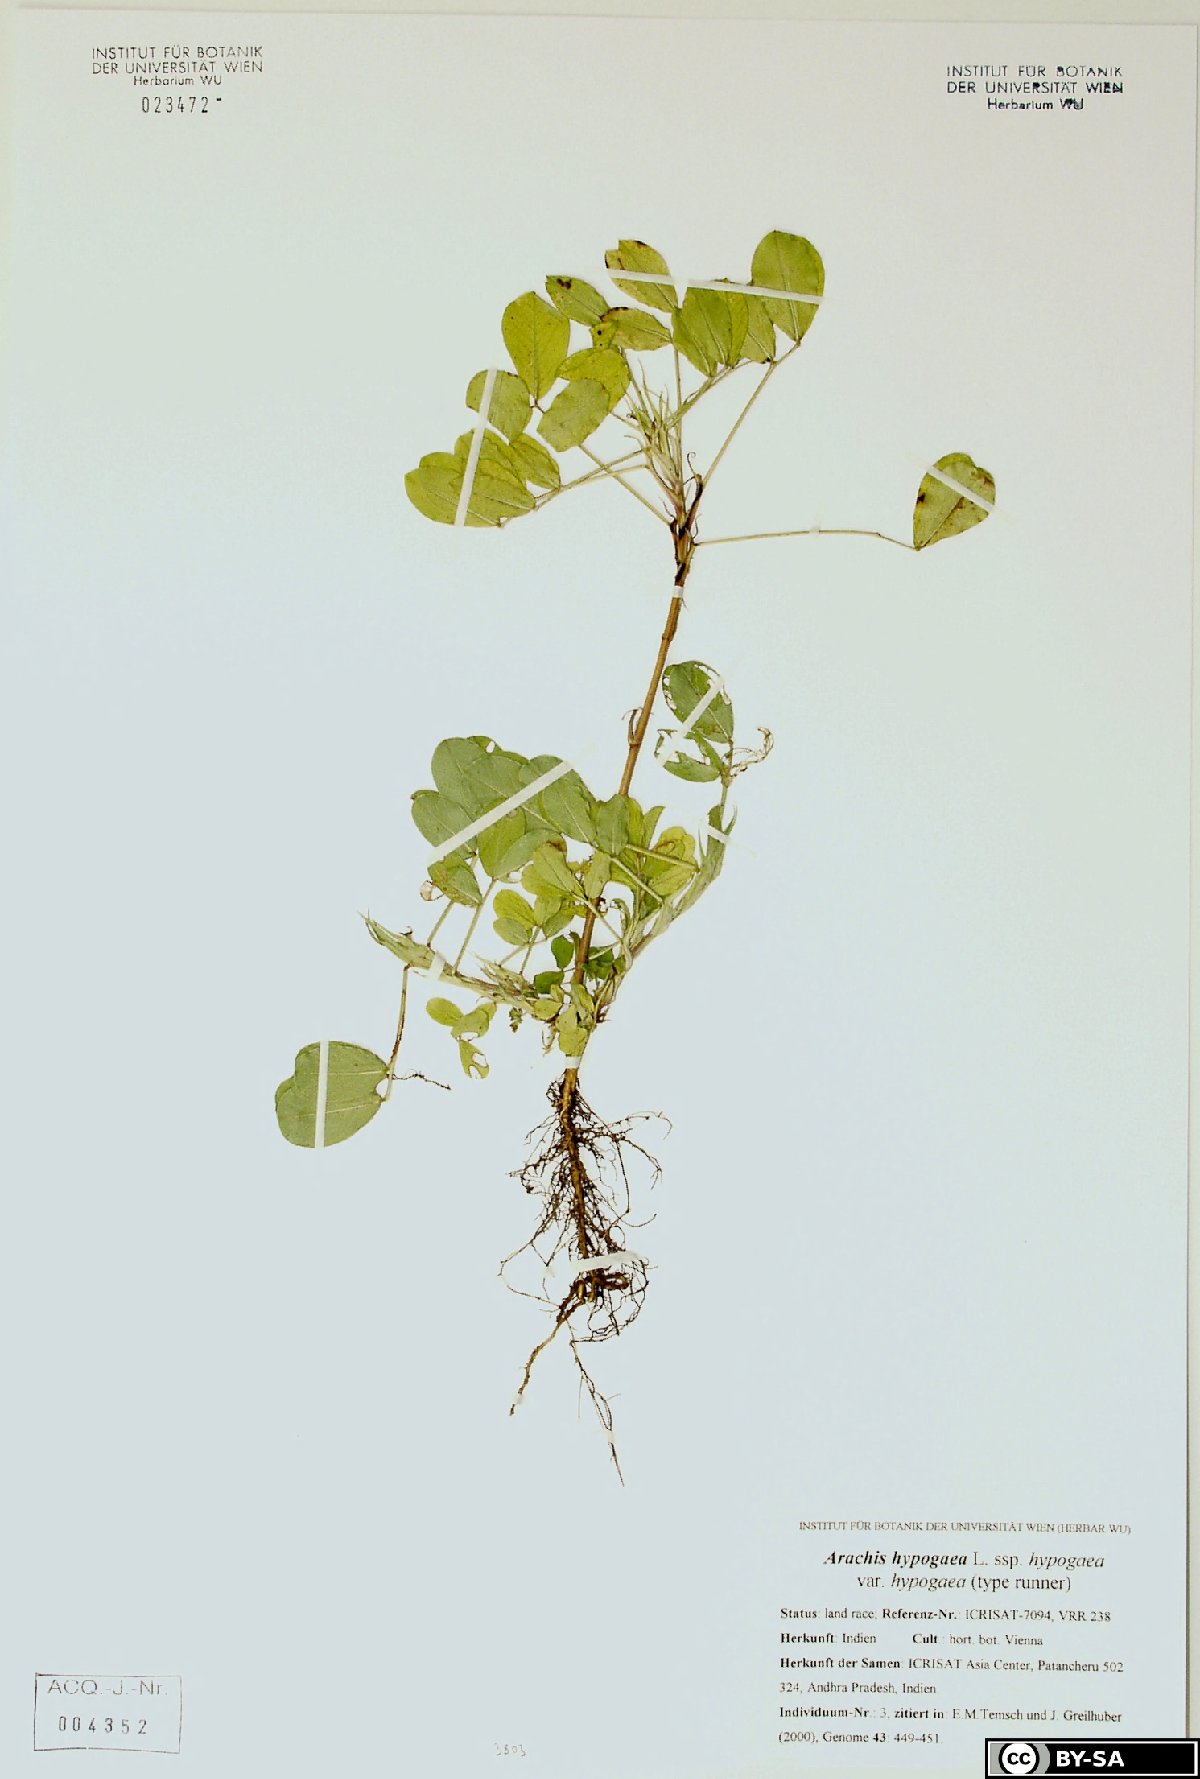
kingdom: Plantae
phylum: Tracheophyta
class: Magnoliopsida
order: Fabales
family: Fabaceae
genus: Arachis
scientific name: Arachis hypogaea
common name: Peanut
